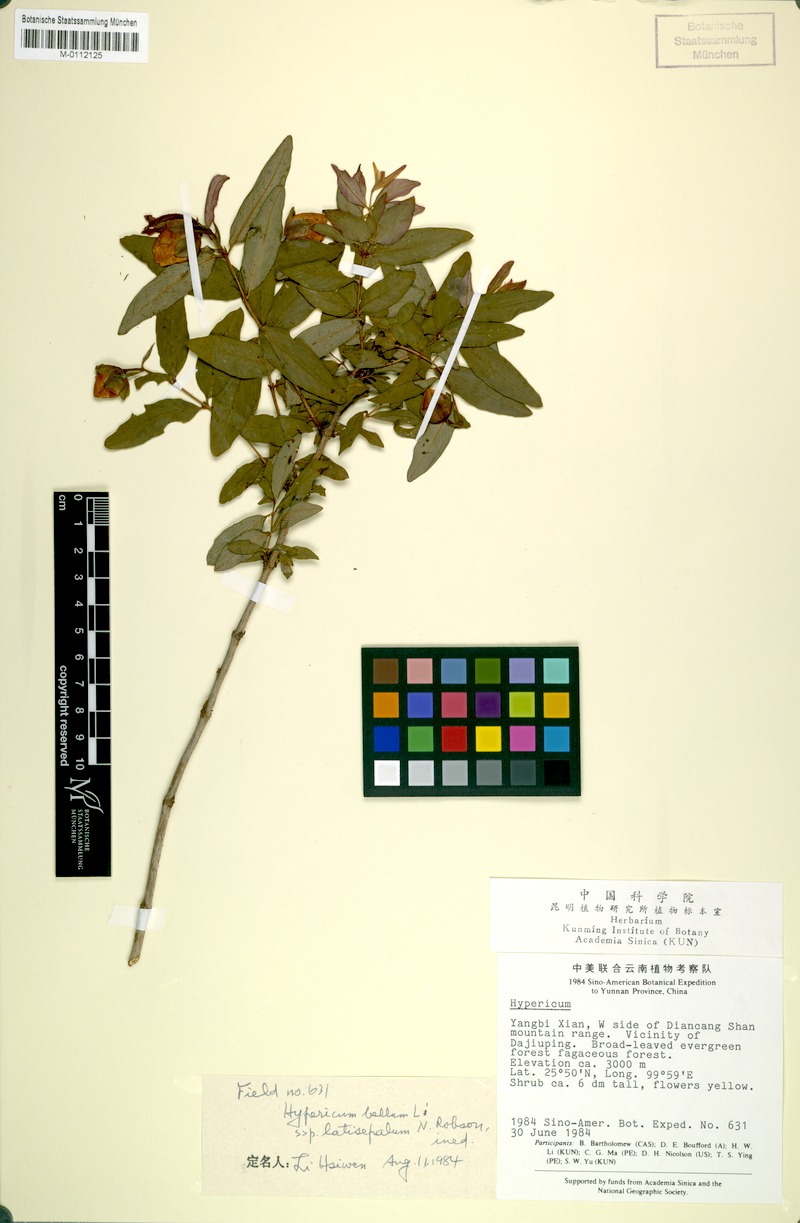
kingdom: Plantae
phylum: Tracheophyta
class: Magnoliopsida
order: Malpighiales
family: Hypericaceae
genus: Hypericum
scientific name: Hypericum latisepalum
